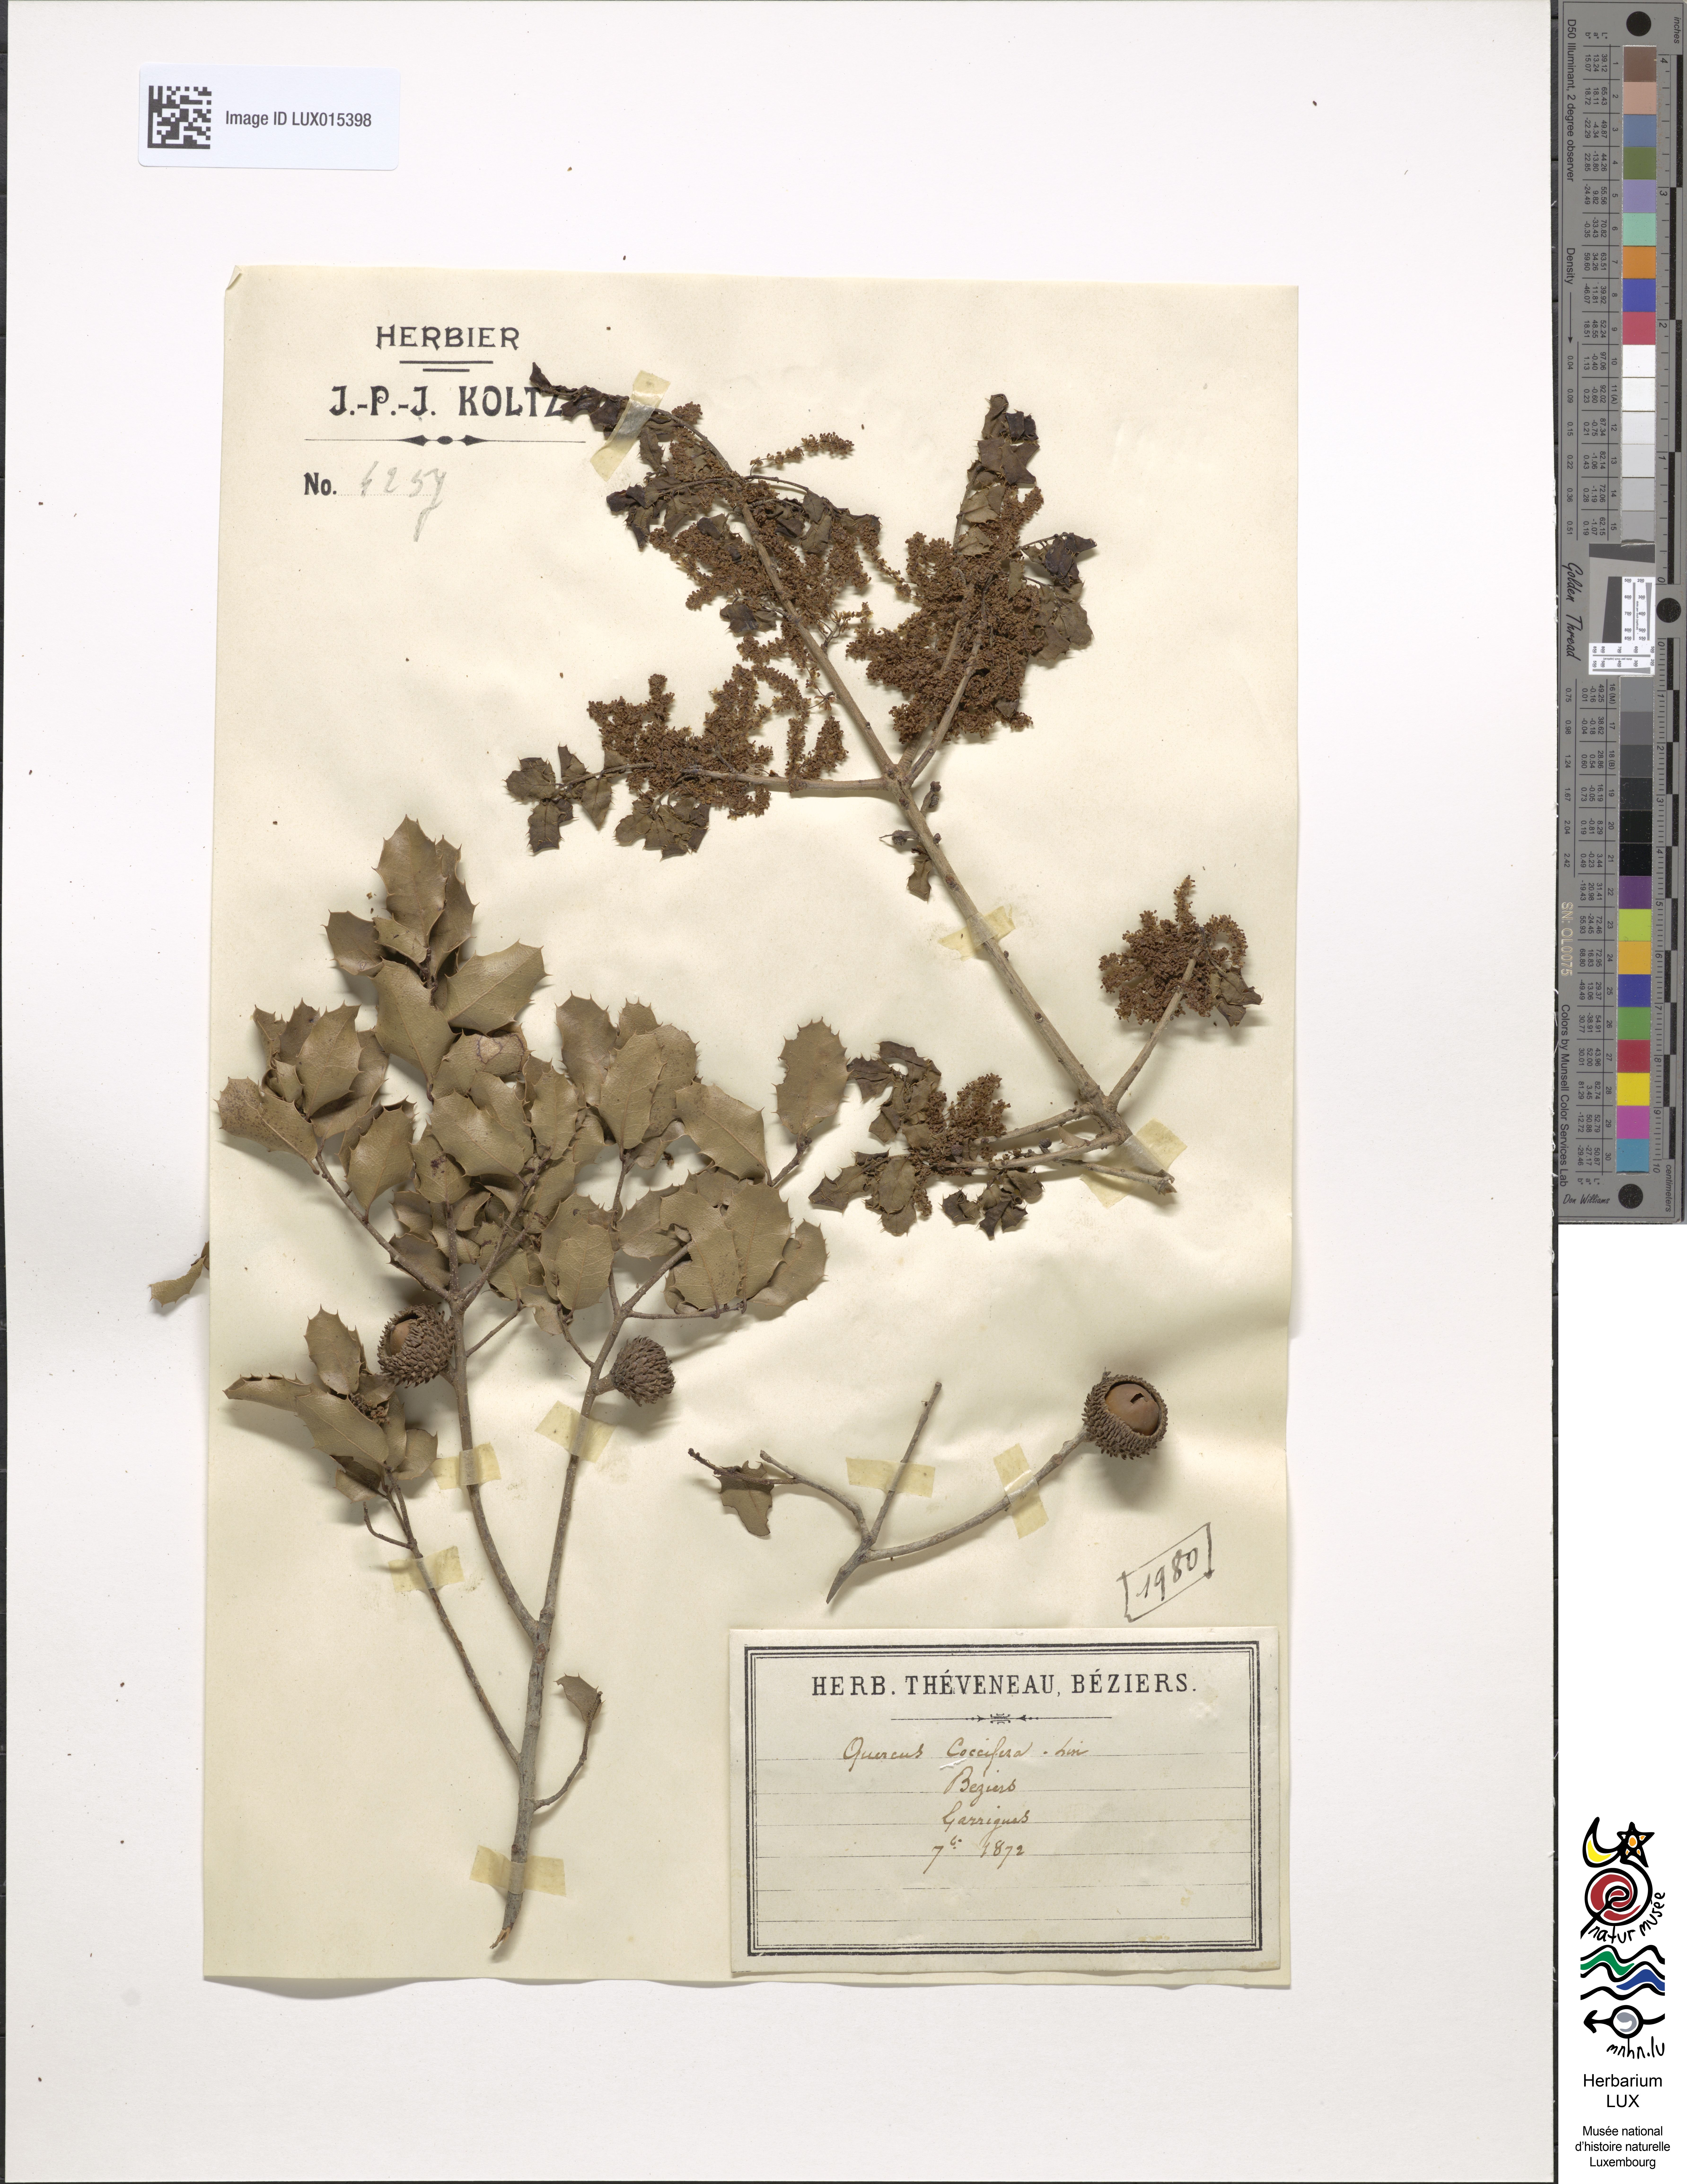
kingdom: Plantae
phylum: Tracheophyta
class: Magnoliopsida
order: Fagales
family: Fagaceae
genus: Quercus
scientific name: Quercus coccifera
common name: Kermes oak
